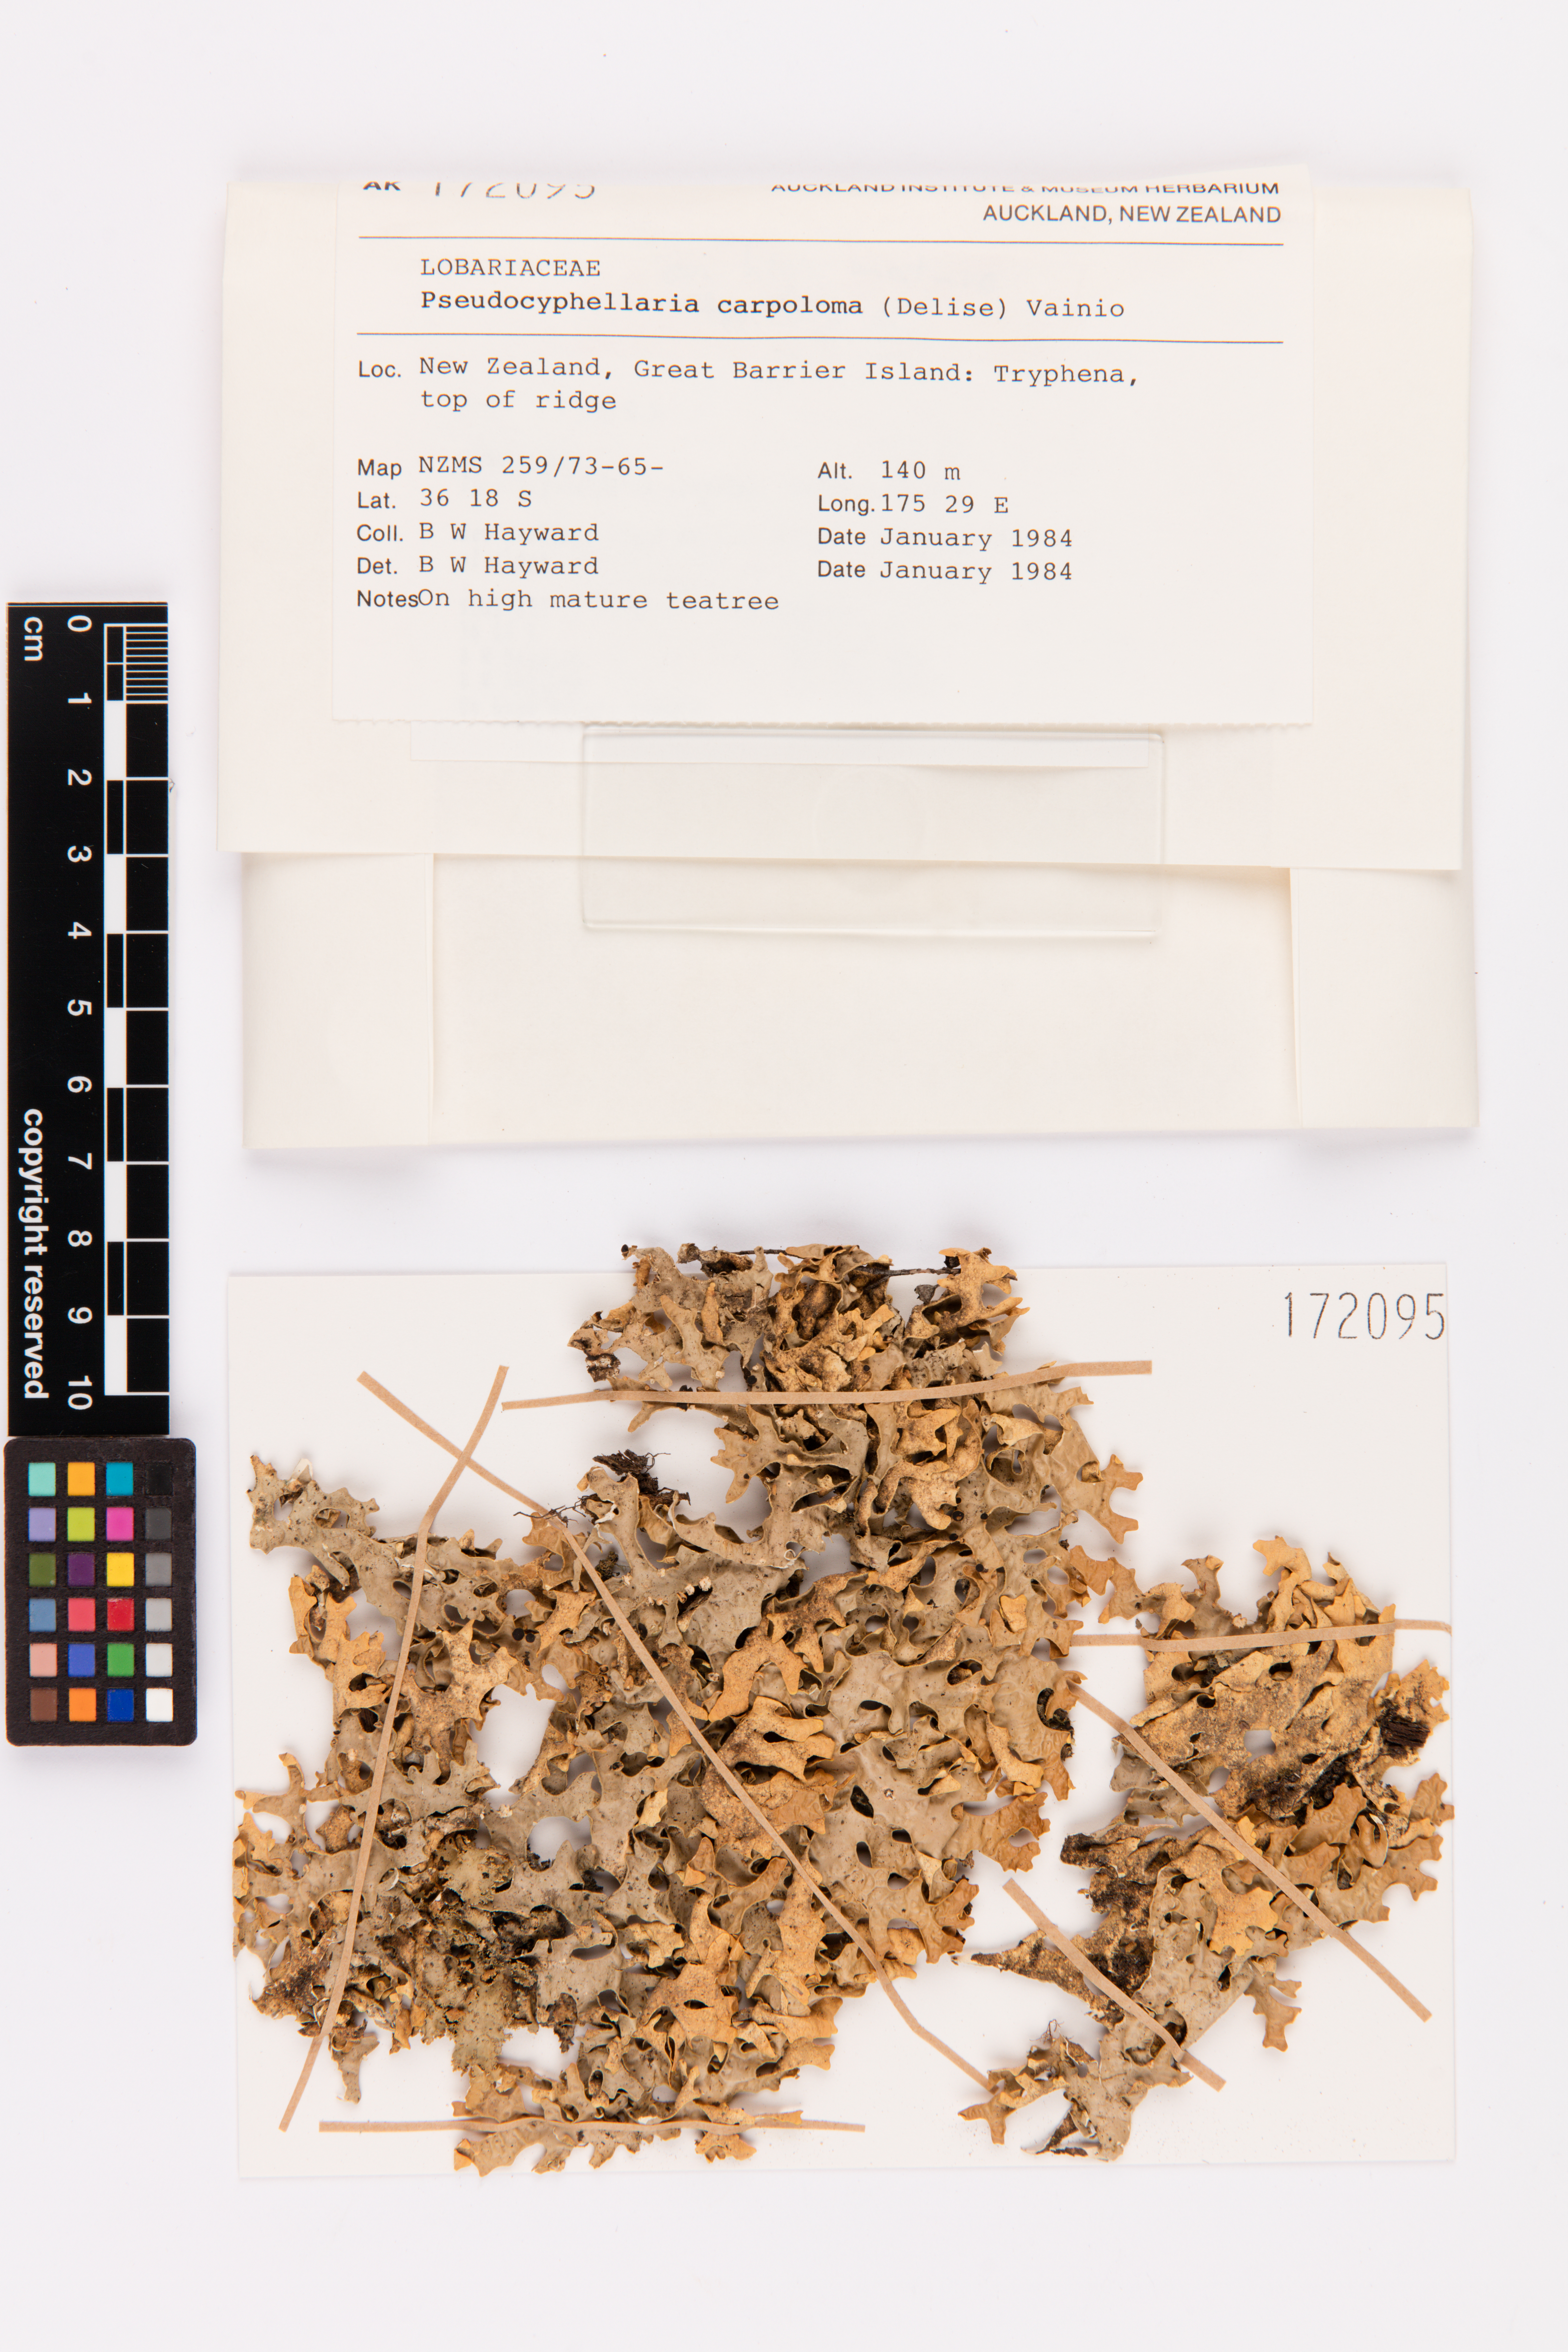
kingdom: Fungi
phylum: Ascomycota
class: Lecanoromycetes
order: Peltigerales
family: Lobariaceae
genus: Pseudocyphellaria
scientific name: Pseudocyphellaria carpoloma
